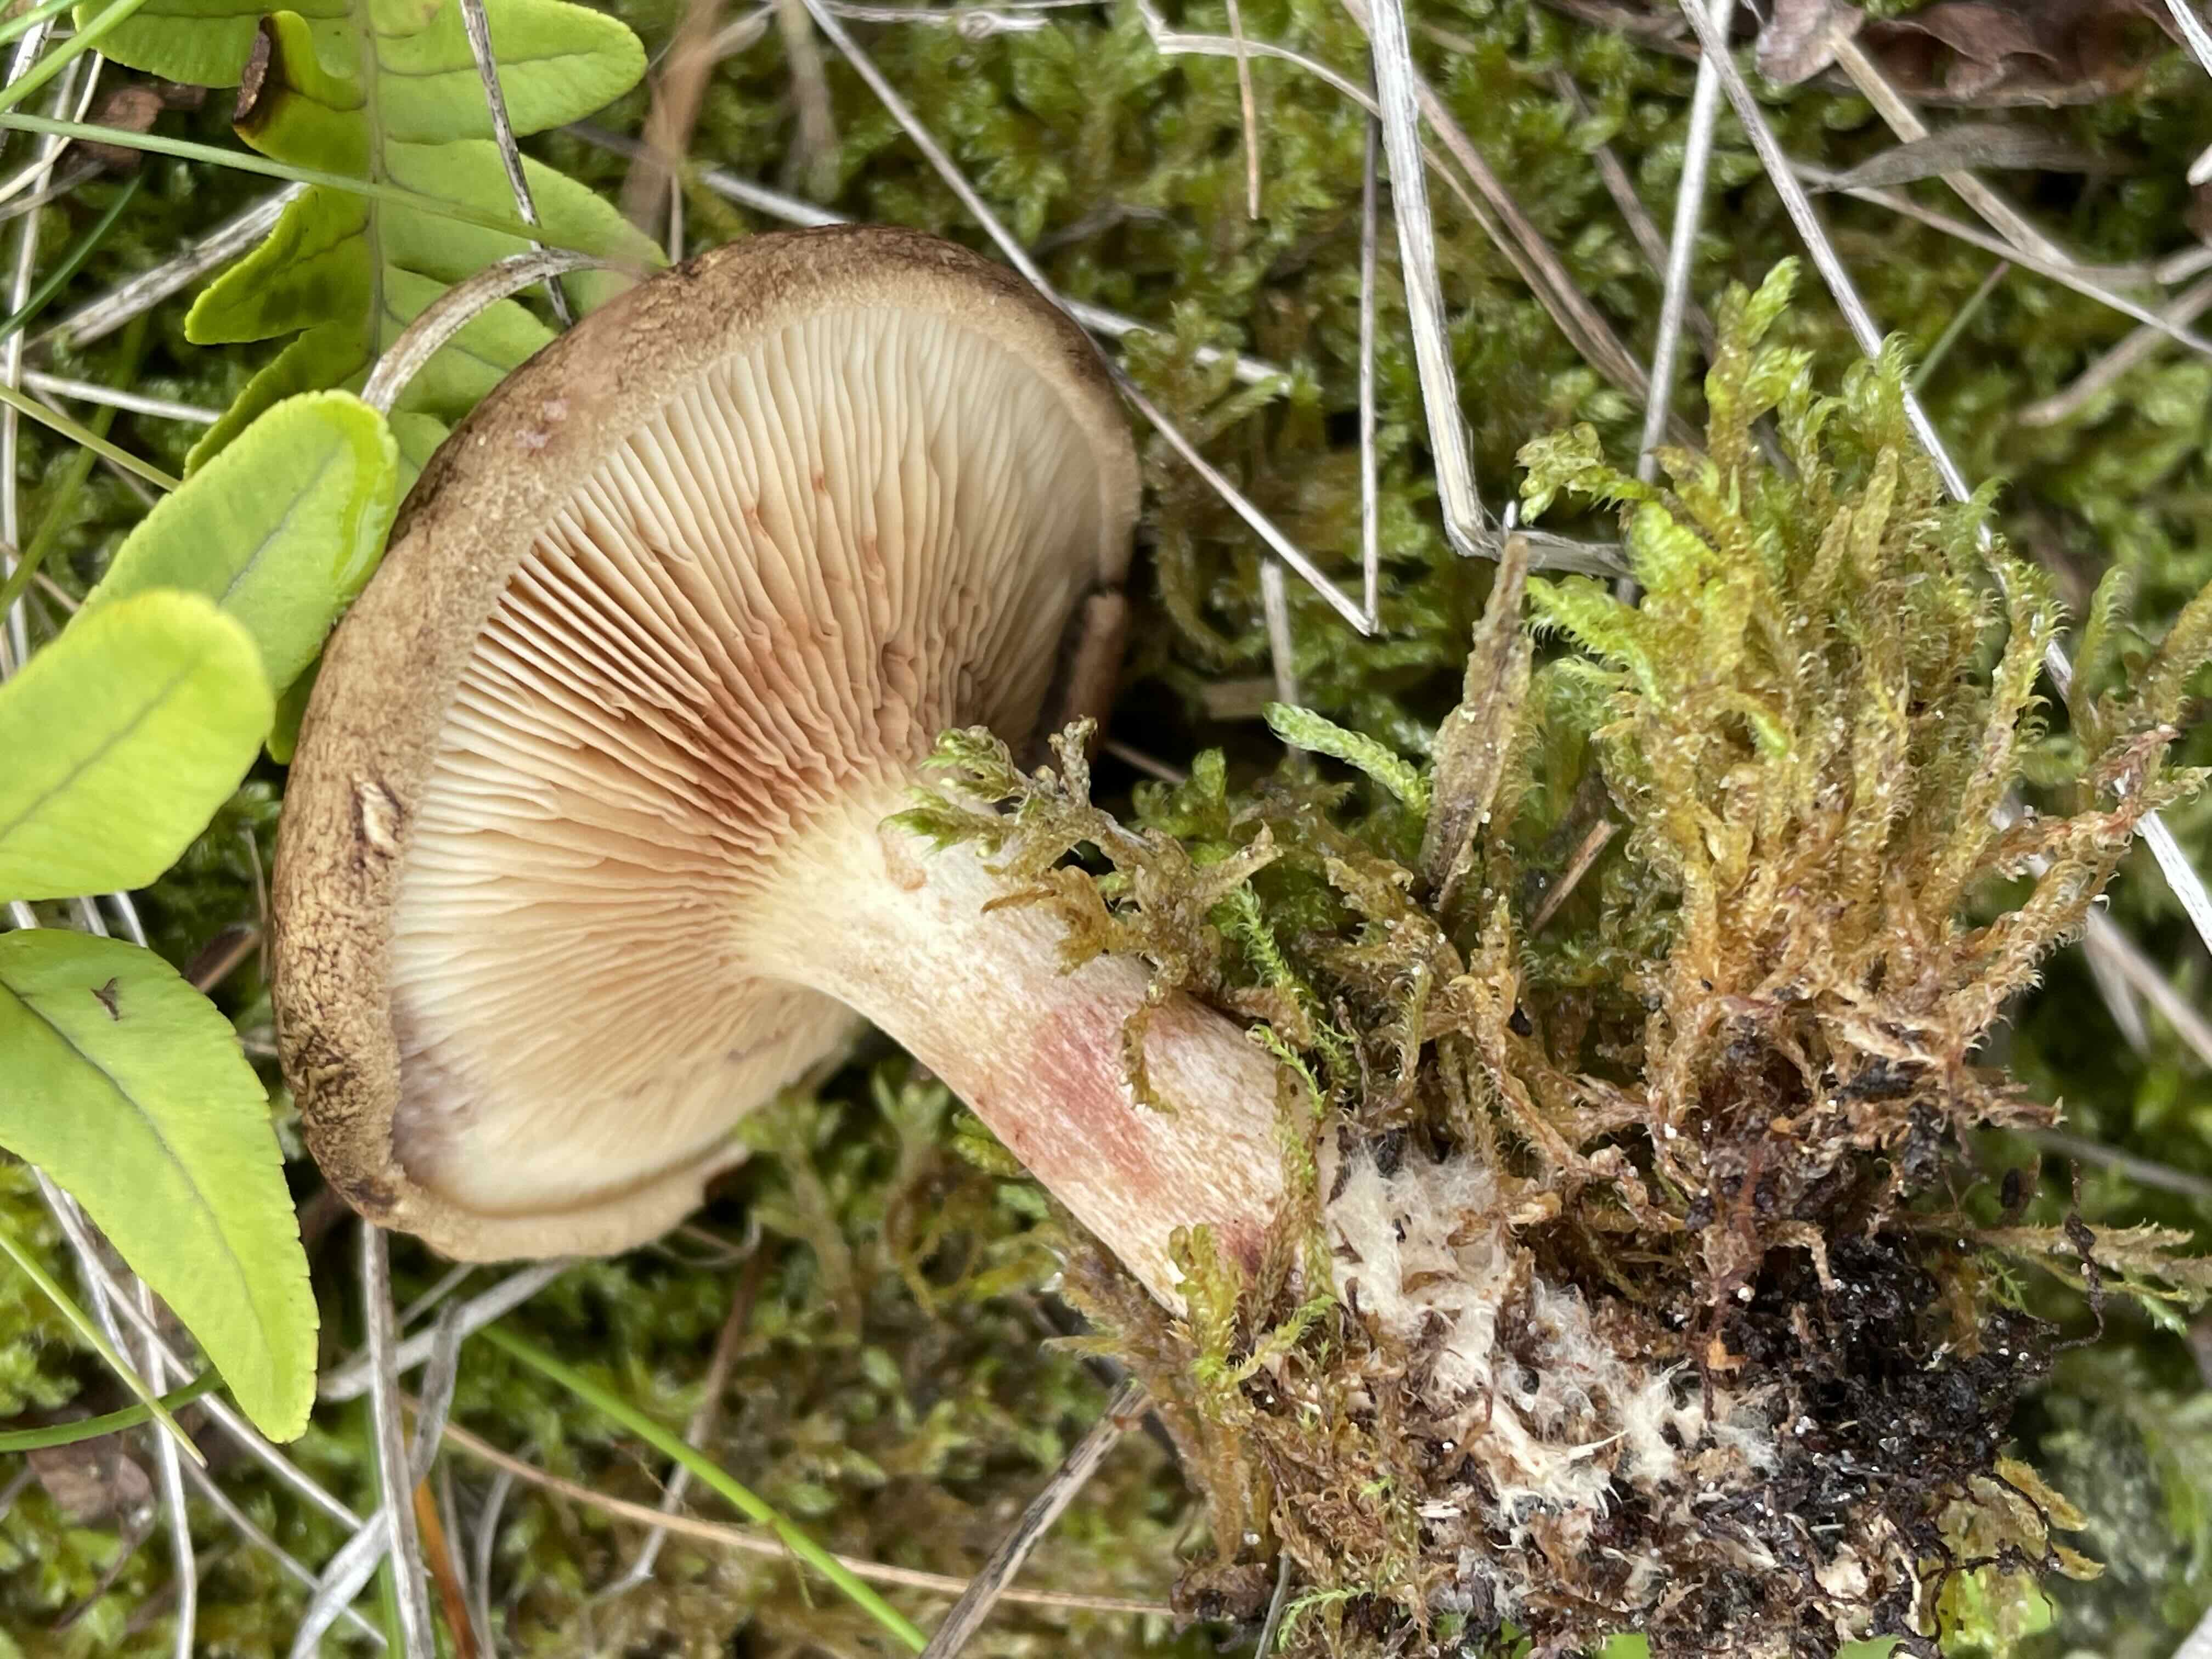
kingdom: Fungi
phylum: Basidiomycota
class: Agaricomycetes
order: Boletales
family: Paxillaceae
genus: Paxillus
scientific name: Paxillus involutus
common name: almindelig netbladhat
